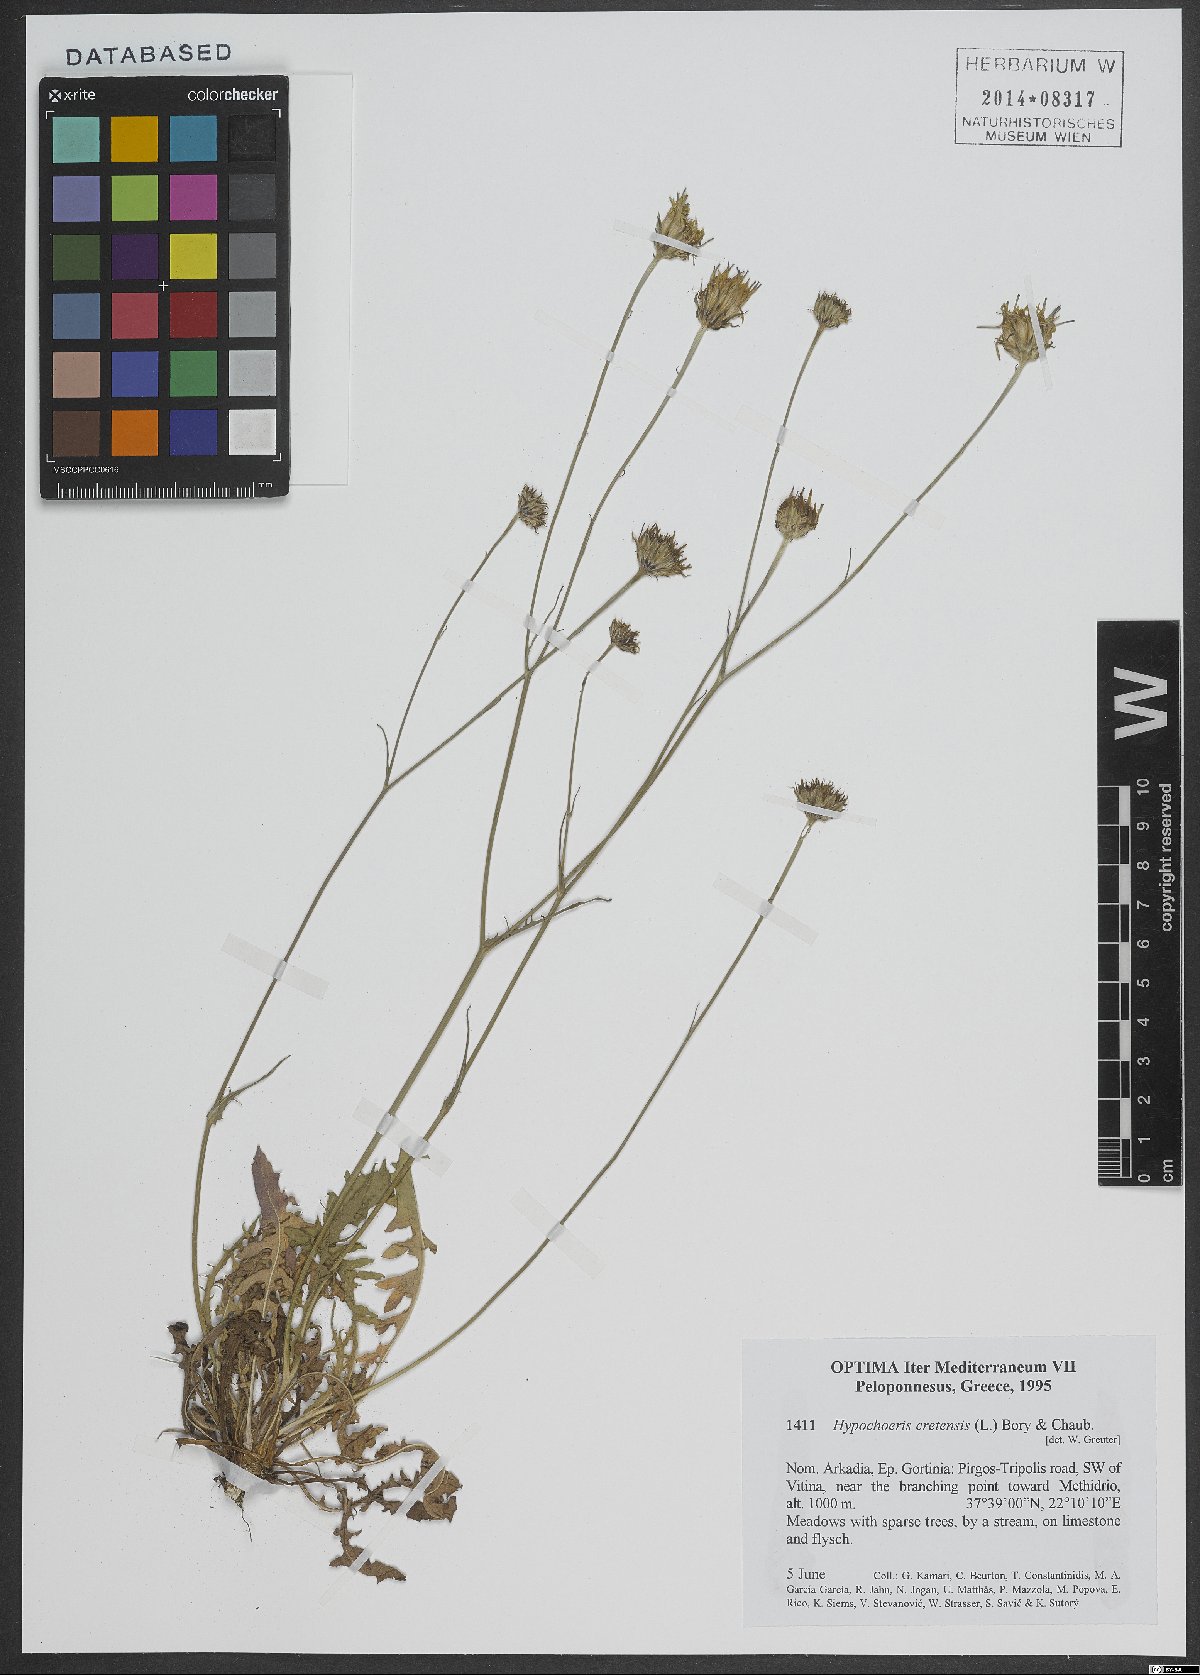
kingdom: Plantae
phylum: Tracheophyta
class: Magnoliopsida
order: Asterales
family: Asteraceae
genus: Hypochaeris
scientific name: Hypochaeris cretensis
